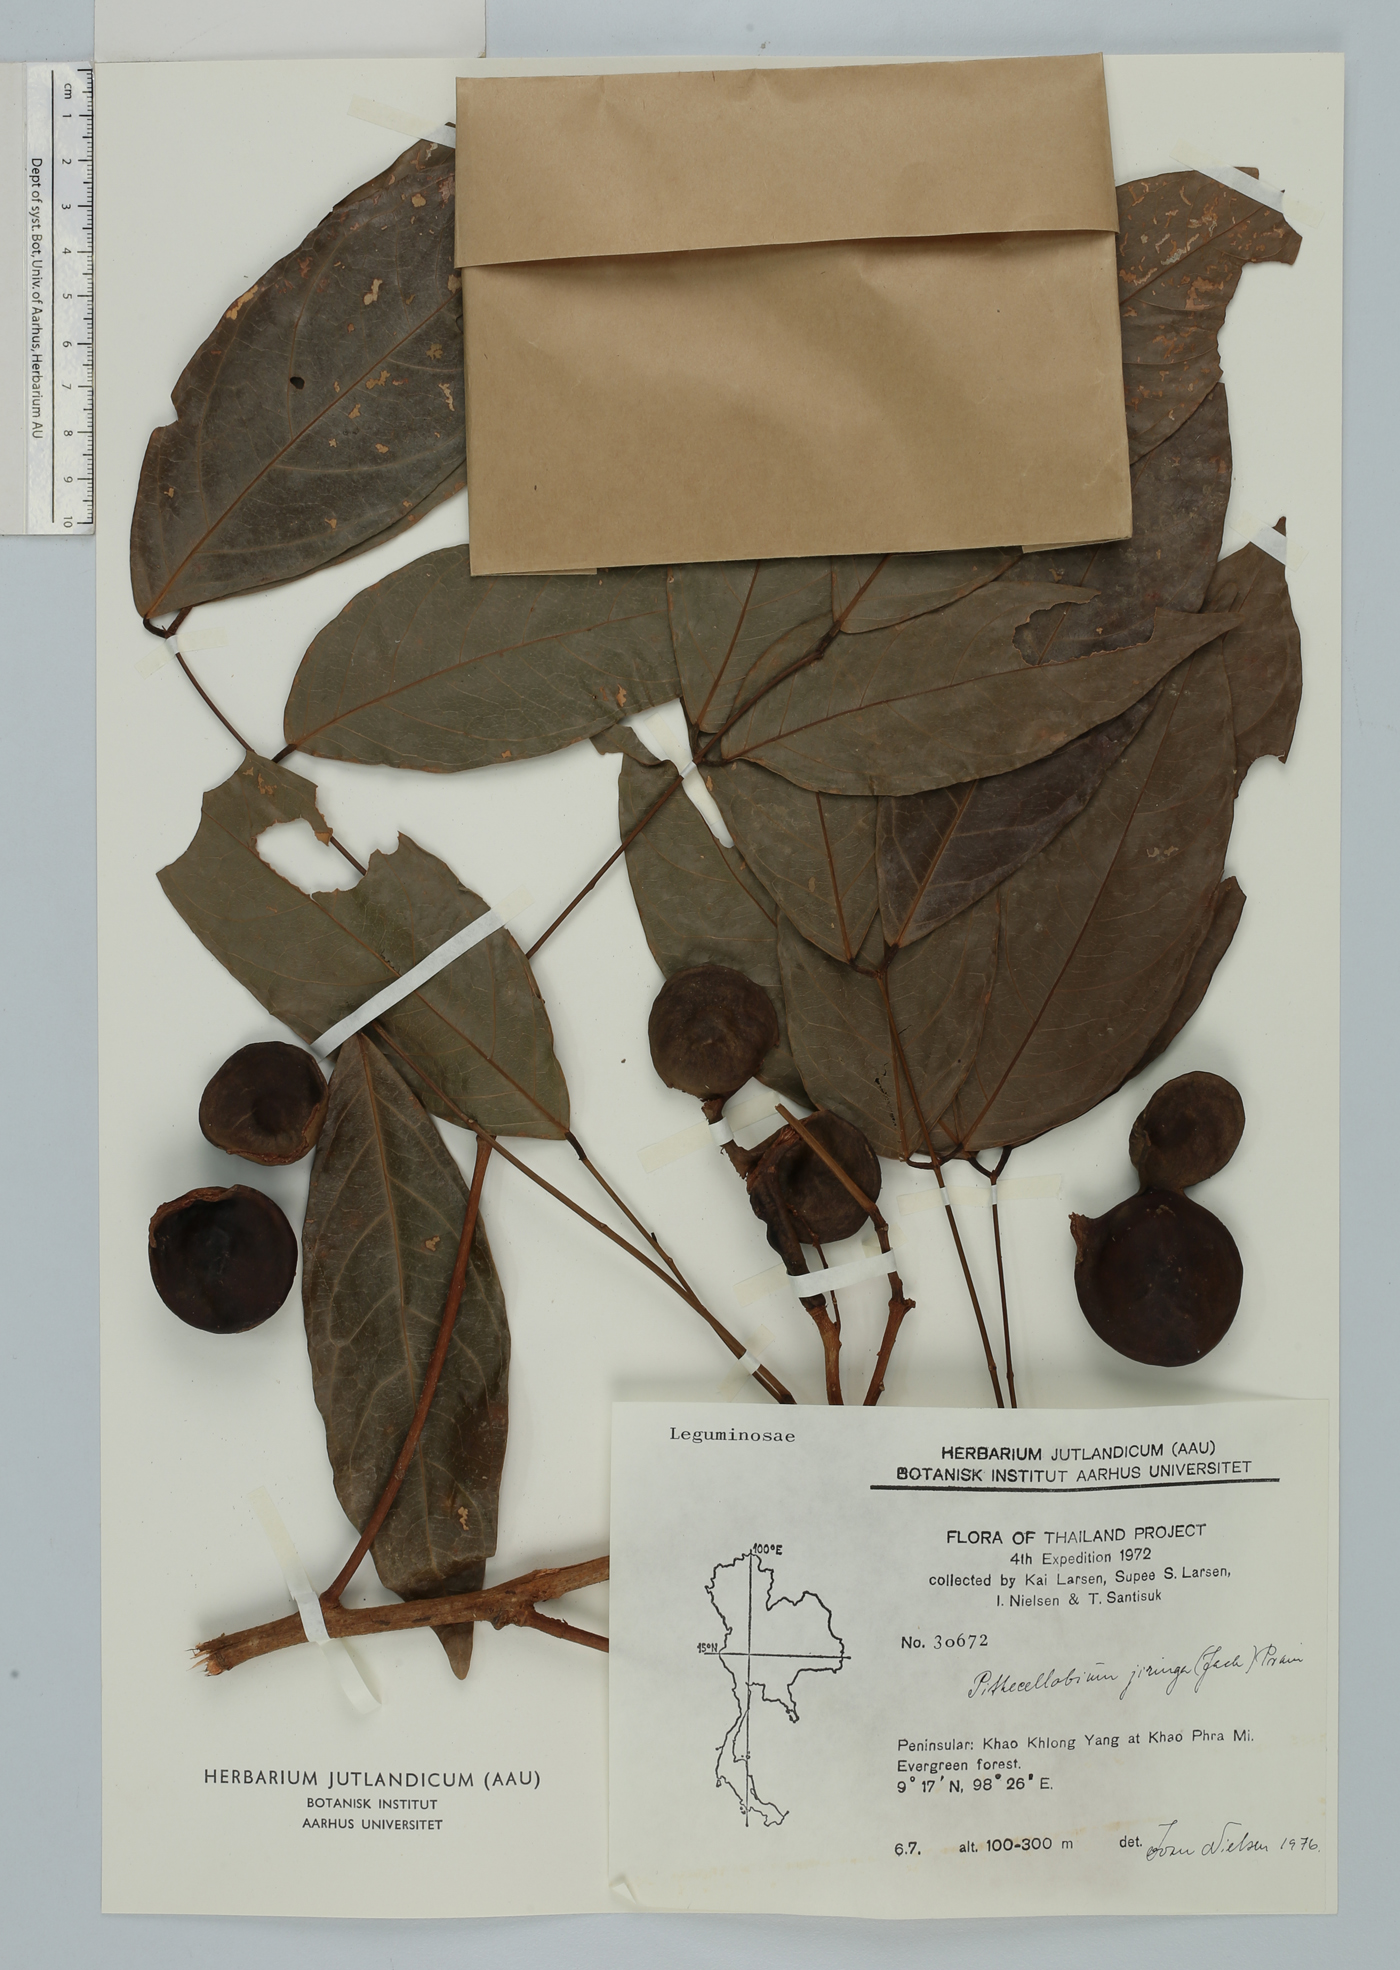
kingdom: Plantae
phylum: Tracheophyta
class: Magnoliopsida
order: Fabales
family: Fabaceae
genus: Archidendron
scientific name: Archidendron jiringa
